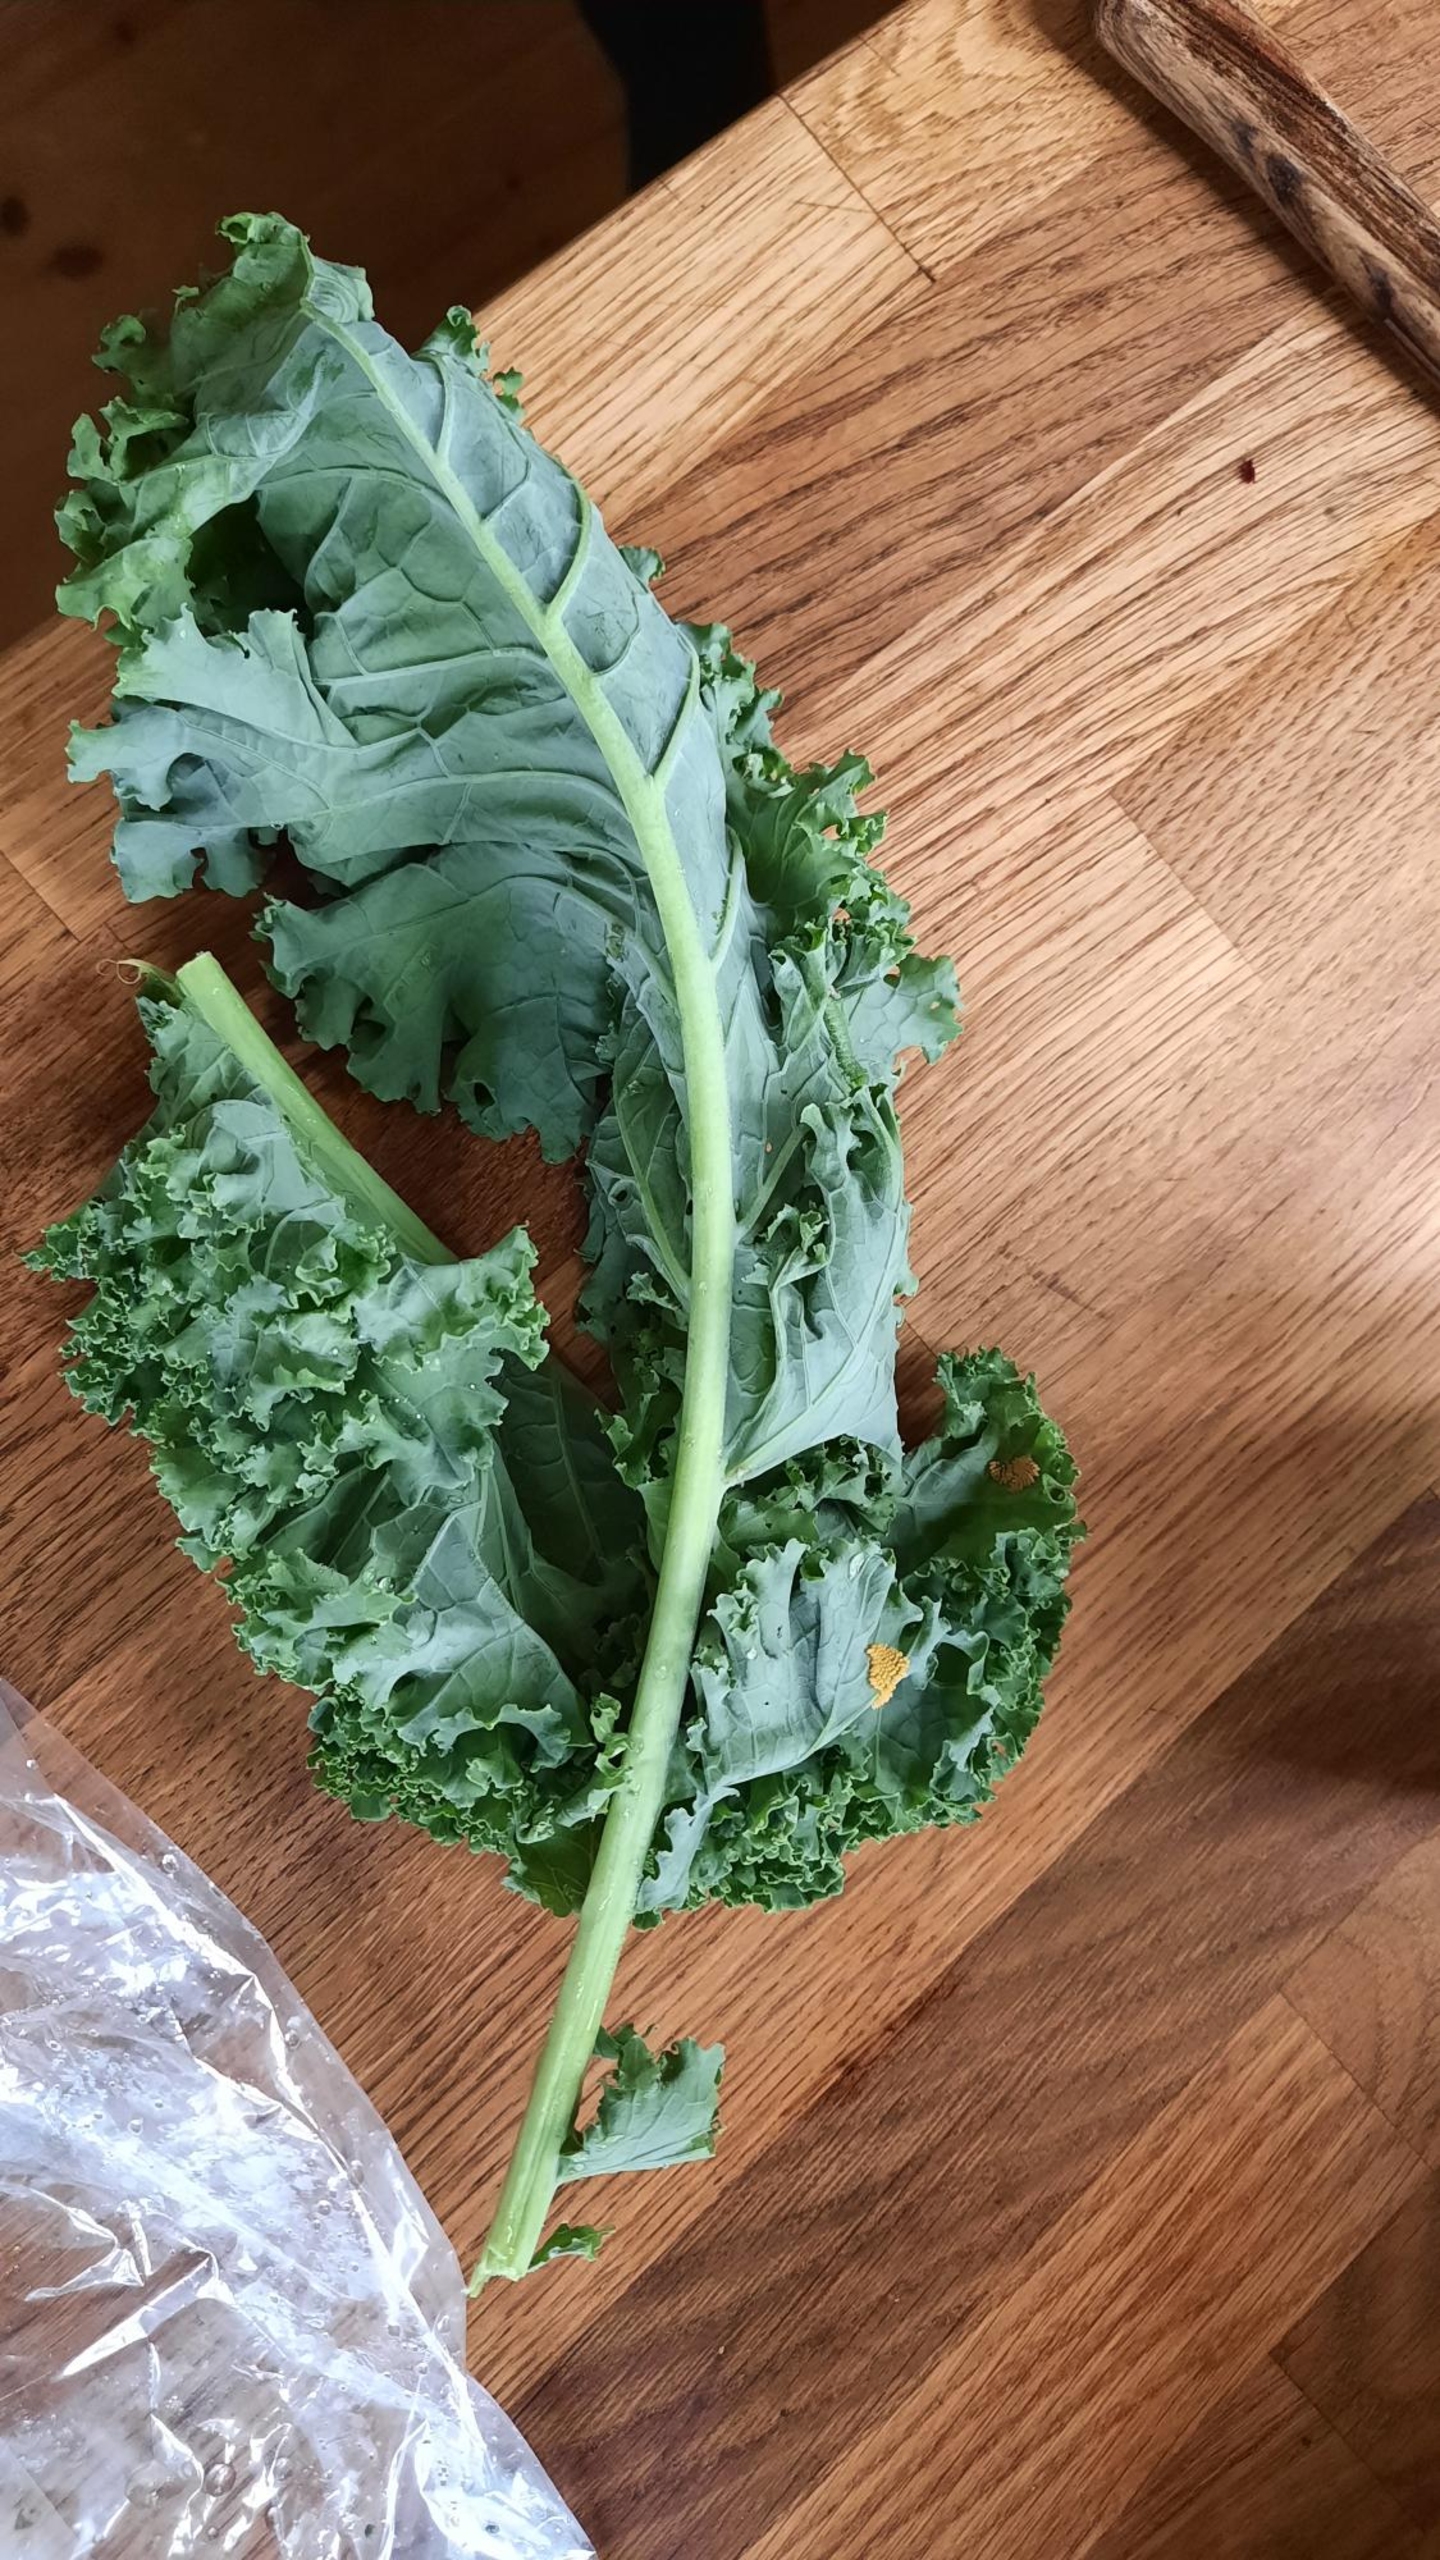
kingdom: Animalia
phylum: Arthropoda
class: Insecta
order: Lepidoptera
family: Pieridae
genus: Pieris
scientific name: Pieris brassicae
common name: Stor kålsommerfugl
